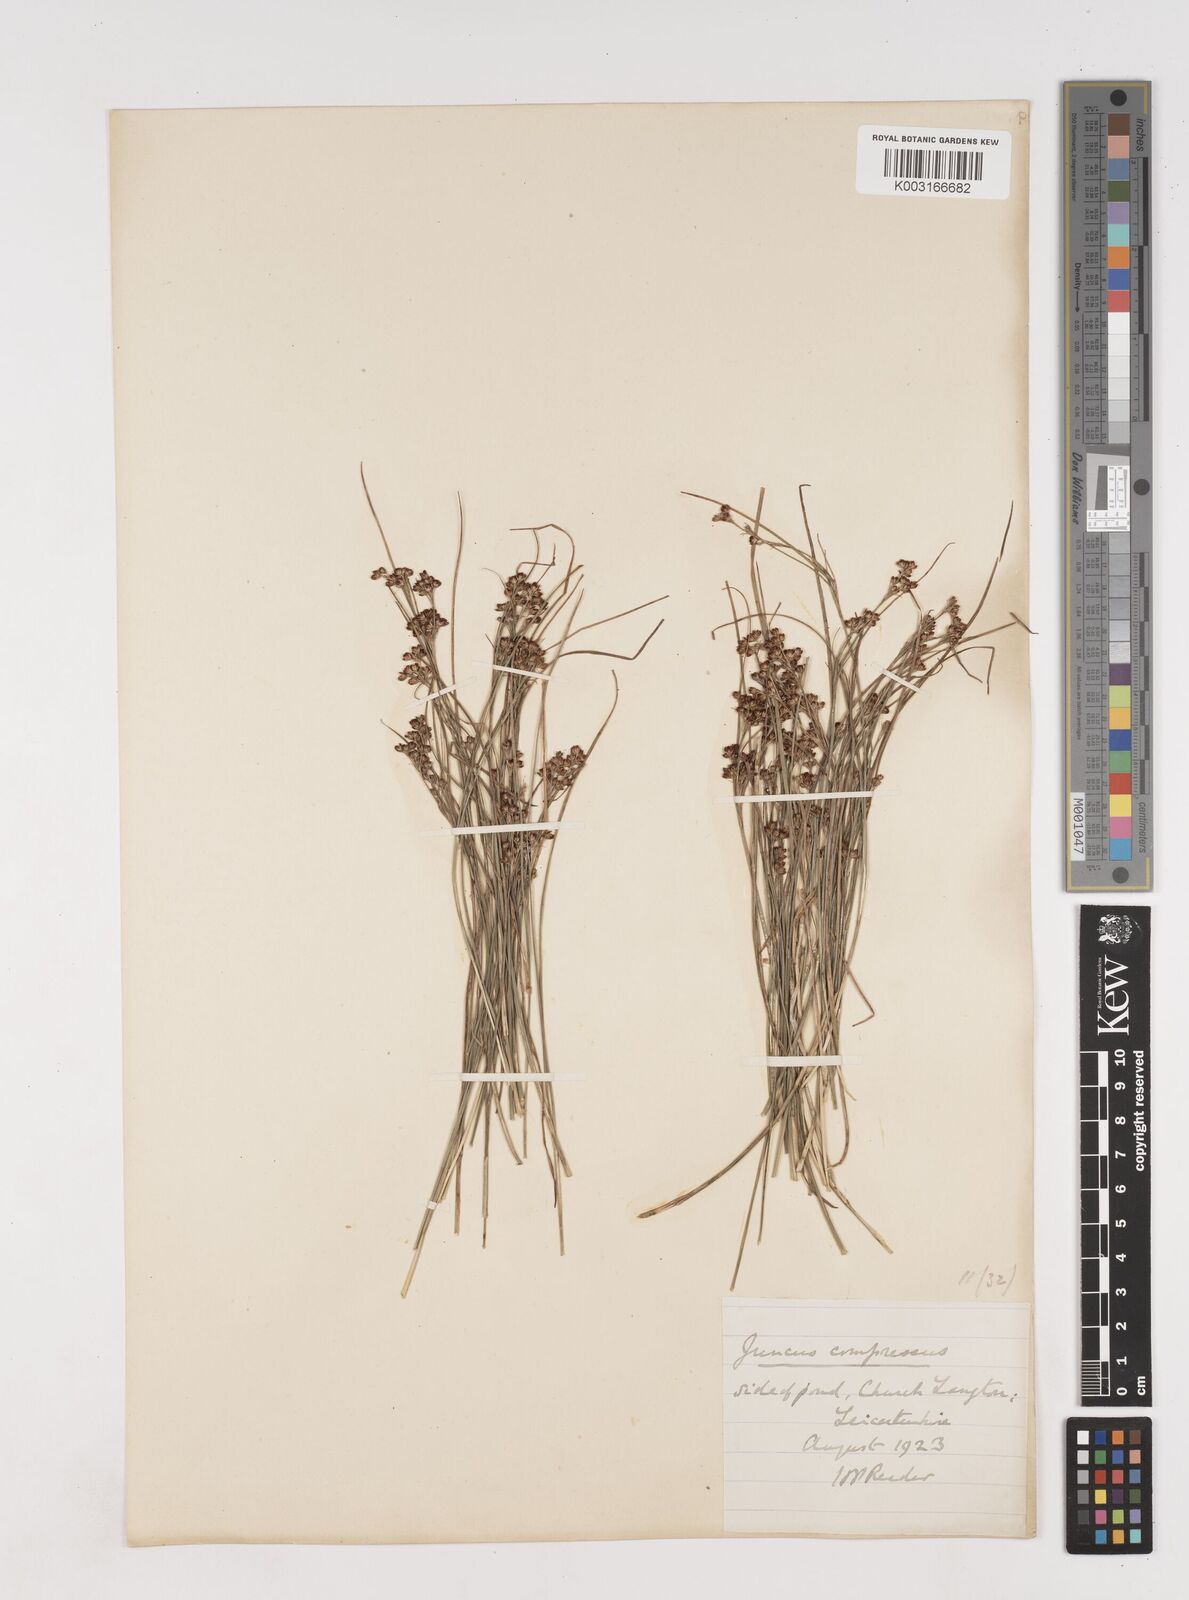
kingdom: Plantae
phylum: Tracheophyta
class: Liliopsida
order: Poales
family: Juncaceae
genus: Juncus
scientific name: Juncus compressus
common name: Round-fruited rush
